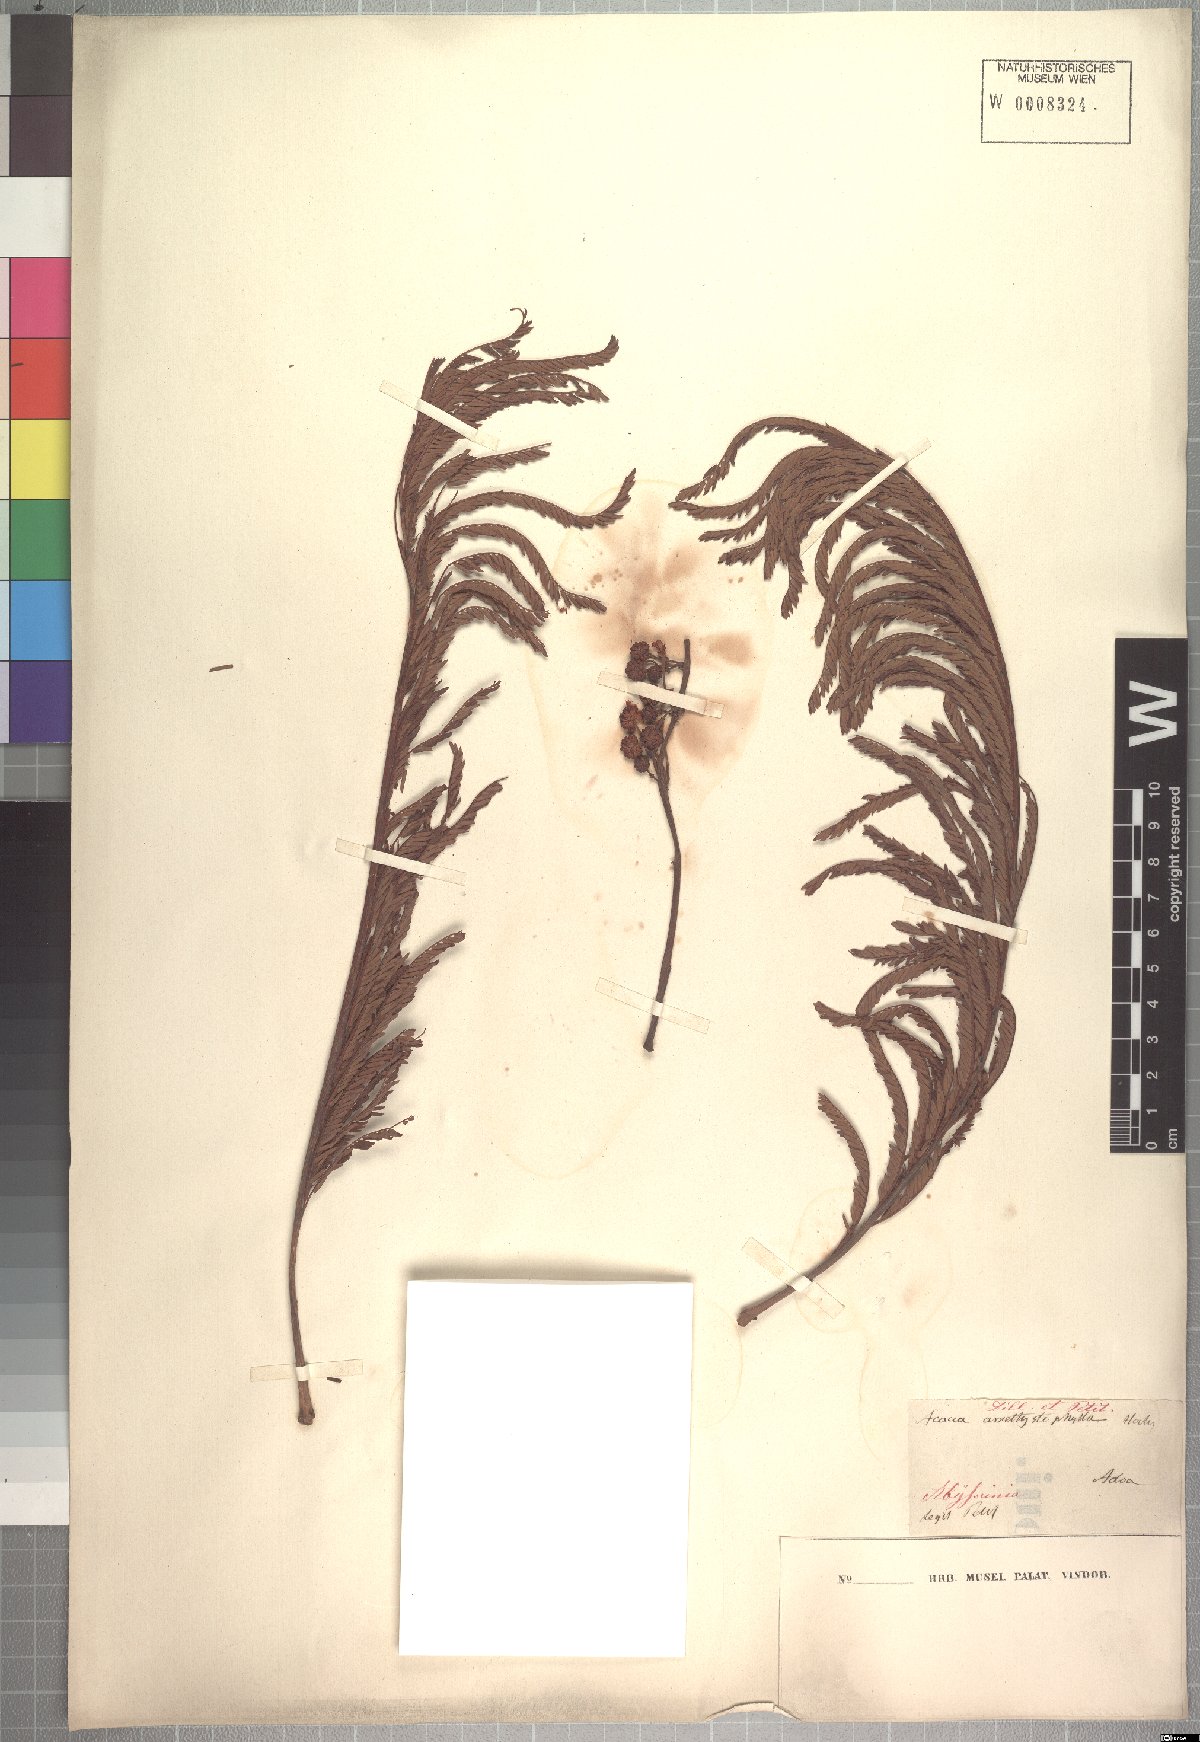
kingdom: Plantae
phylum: Tracheophyta
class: Magnoliopsida
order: Fabales
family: Fabaceae
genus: Vachellia
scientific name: Vachellia amythethophylla
